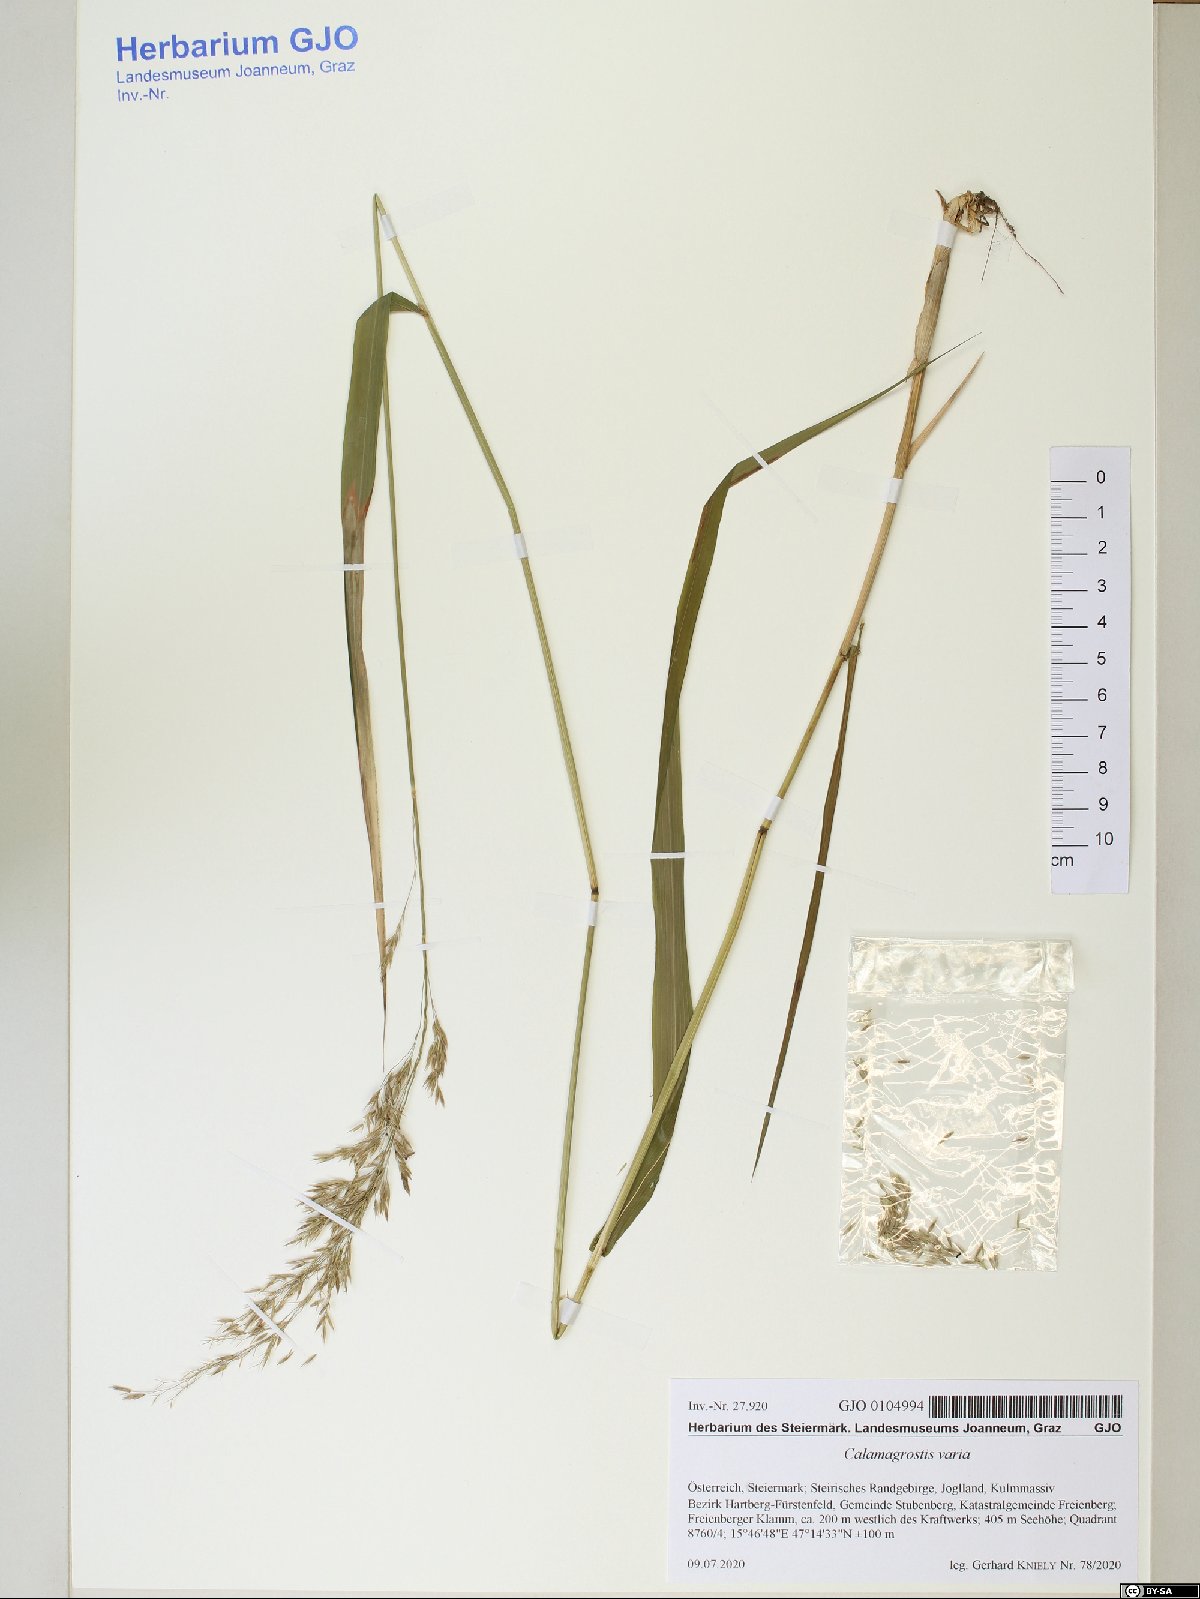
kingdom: Plantae
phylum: Tracheophyta
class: Liliopsida
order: Poales
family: Poaceae
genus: Calamagrostis
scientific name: Calamagrostis varia
